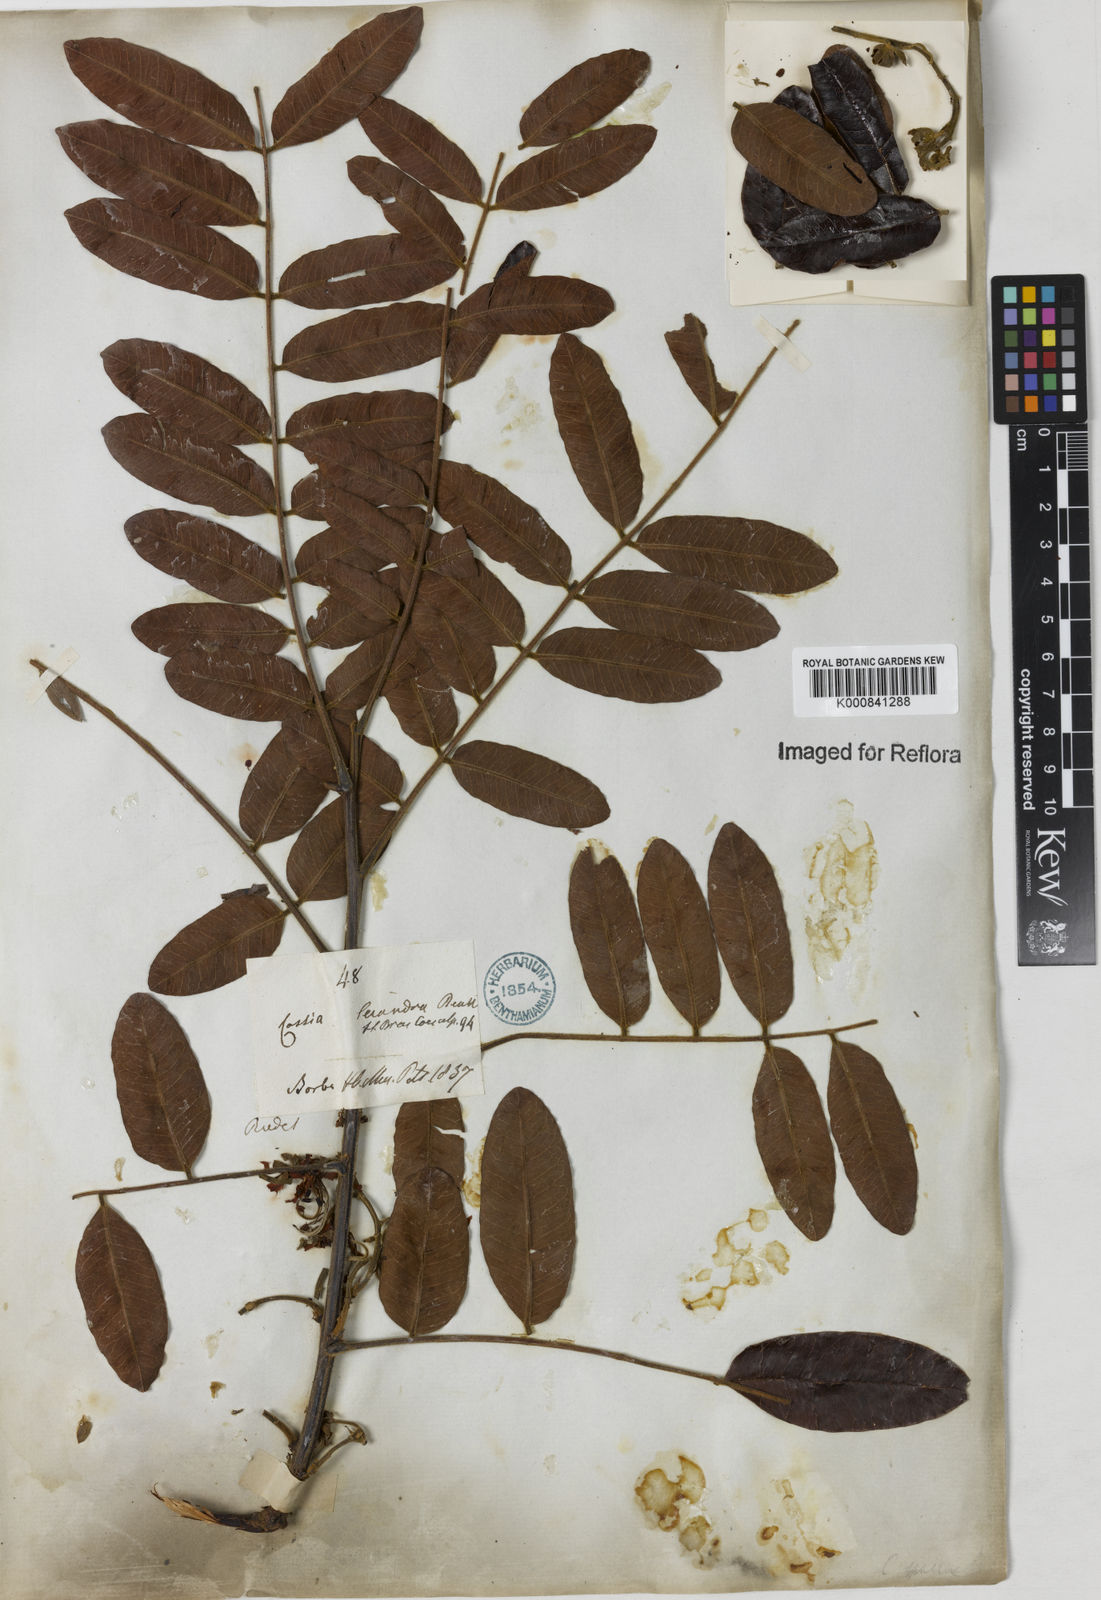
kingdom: Plantae
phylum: Tracheophyta
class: Magnoliopsida
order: Fabales
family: Fabaceae
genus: Cassia
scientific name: Cassia leiandra
